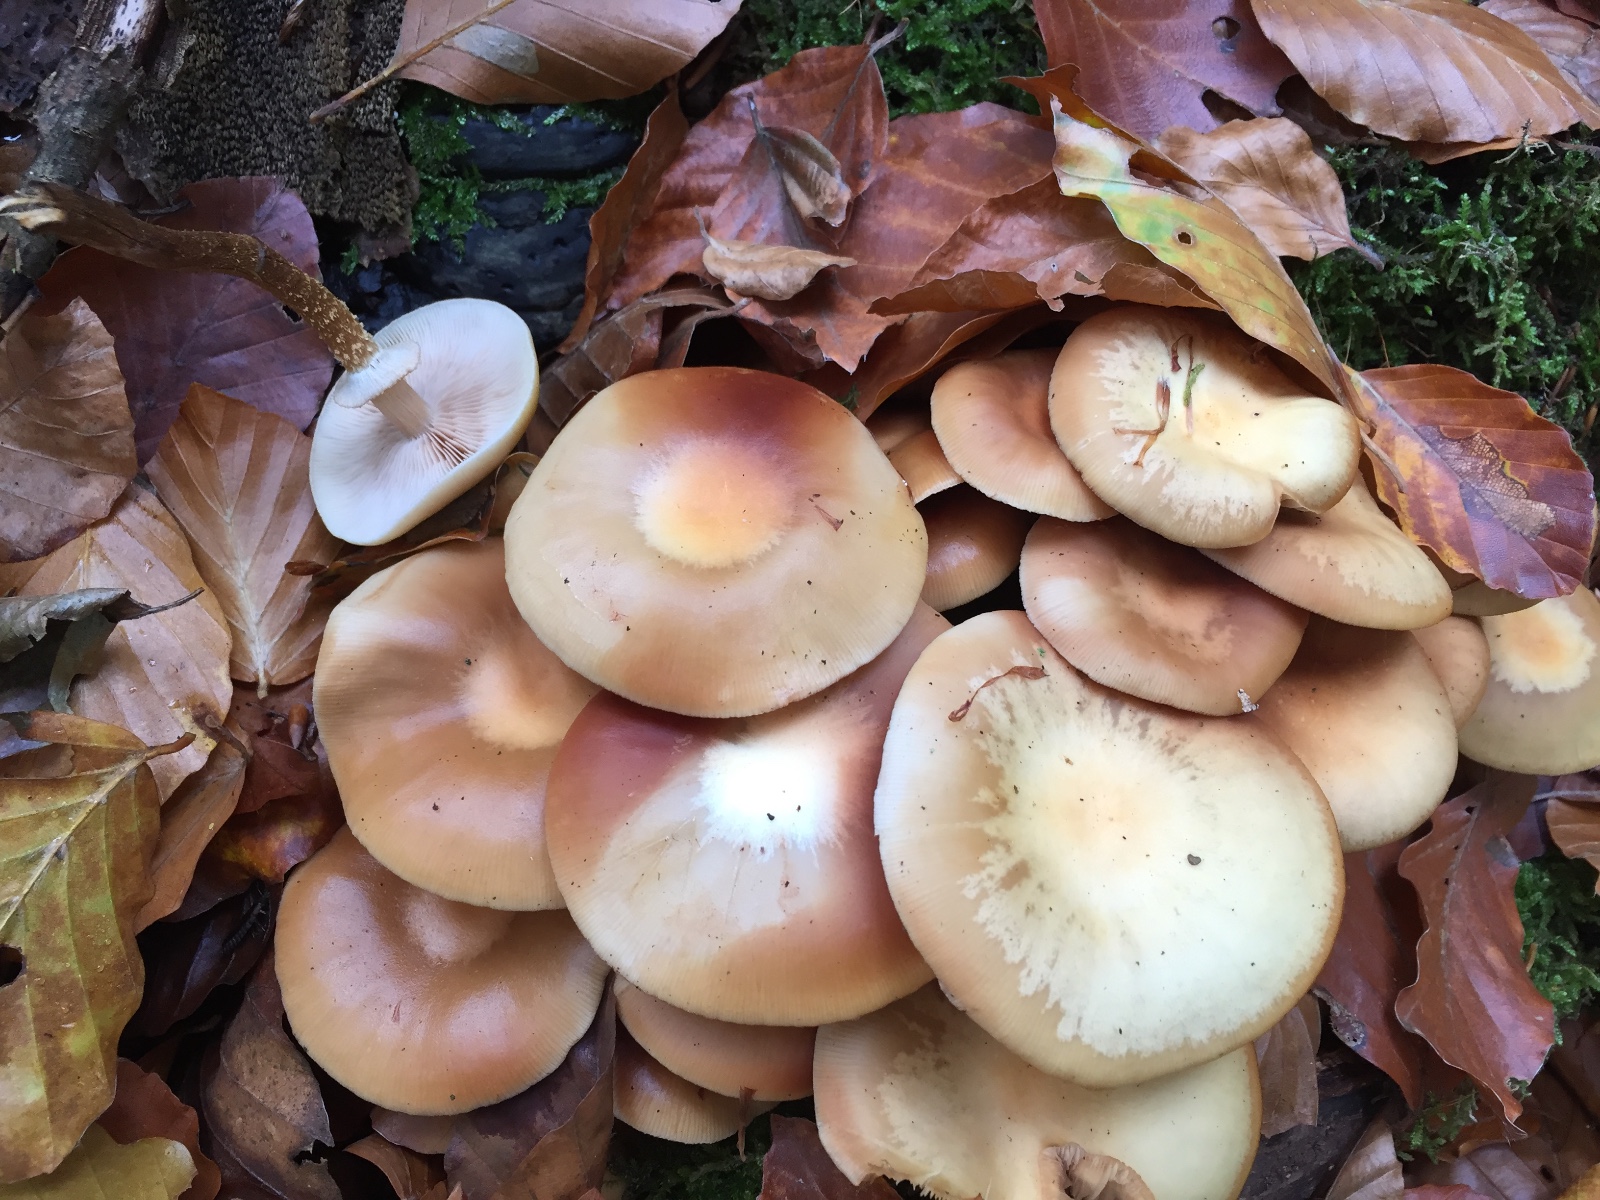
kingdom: Fungi
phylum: Basidiomycota
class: Agaricomycetes
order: Agaricales
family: Strophariaceae
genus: Kuehneromyces
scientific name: Kuehneromyces mutabilis
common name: foranderlig skælhat
